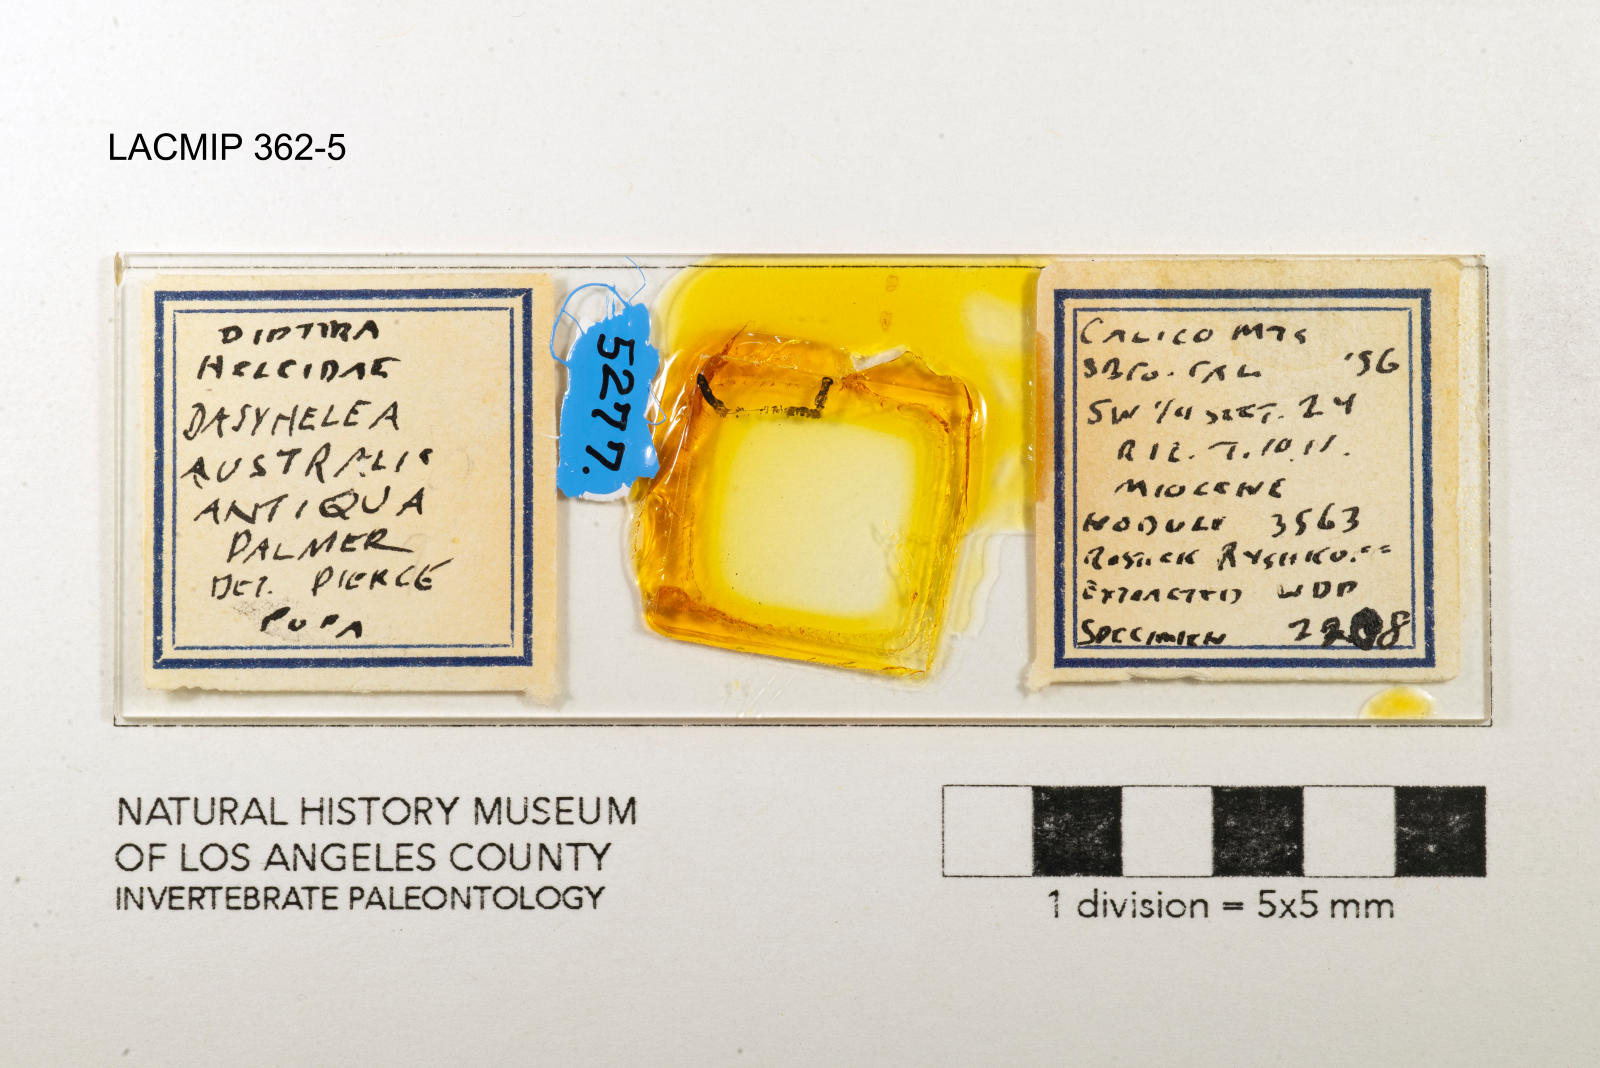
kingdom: Animalia
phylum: Arthropoda
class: Insecta
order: Diptera
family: Ceratopogonidae
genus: Dasyhelea
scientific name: Dasyhelea australia
